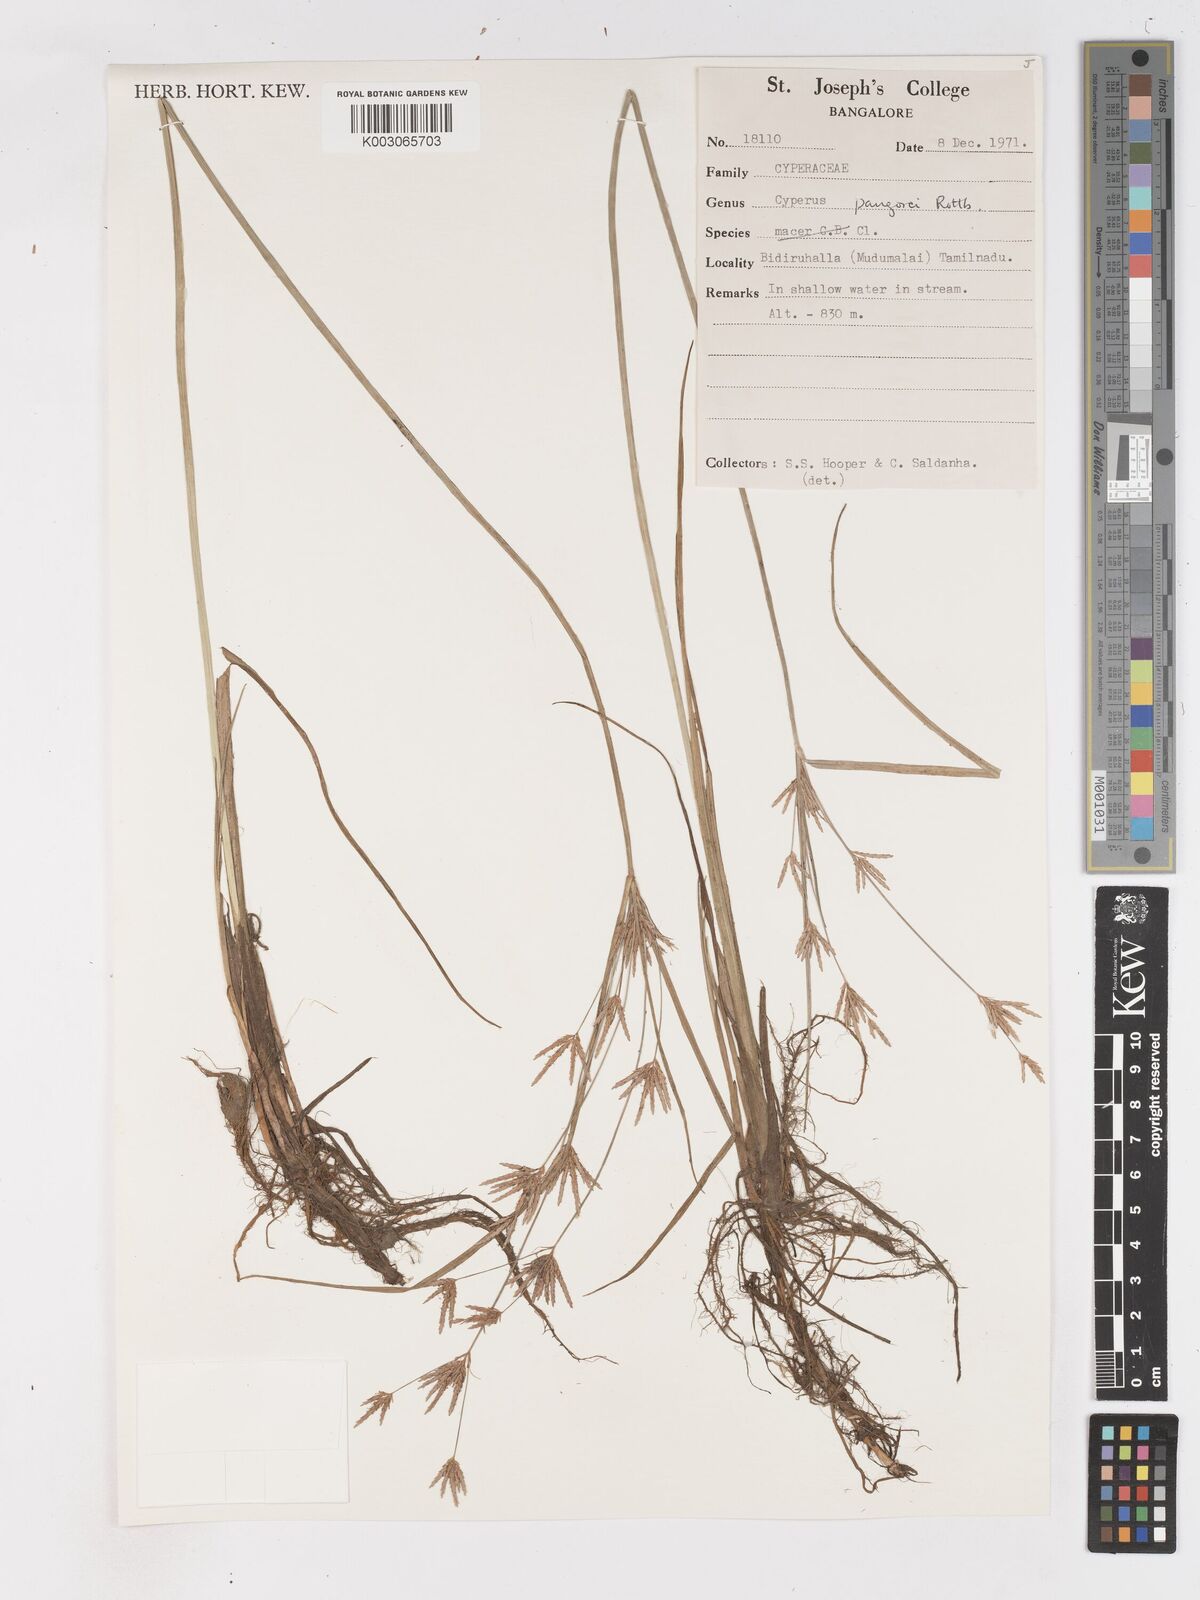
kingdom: Plantae
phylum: Tracheophyta
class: Liliopsida
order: Poales
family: Cyperaceae
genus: Cyperus
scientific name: Cyperus pangorei
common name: Mat sedge
